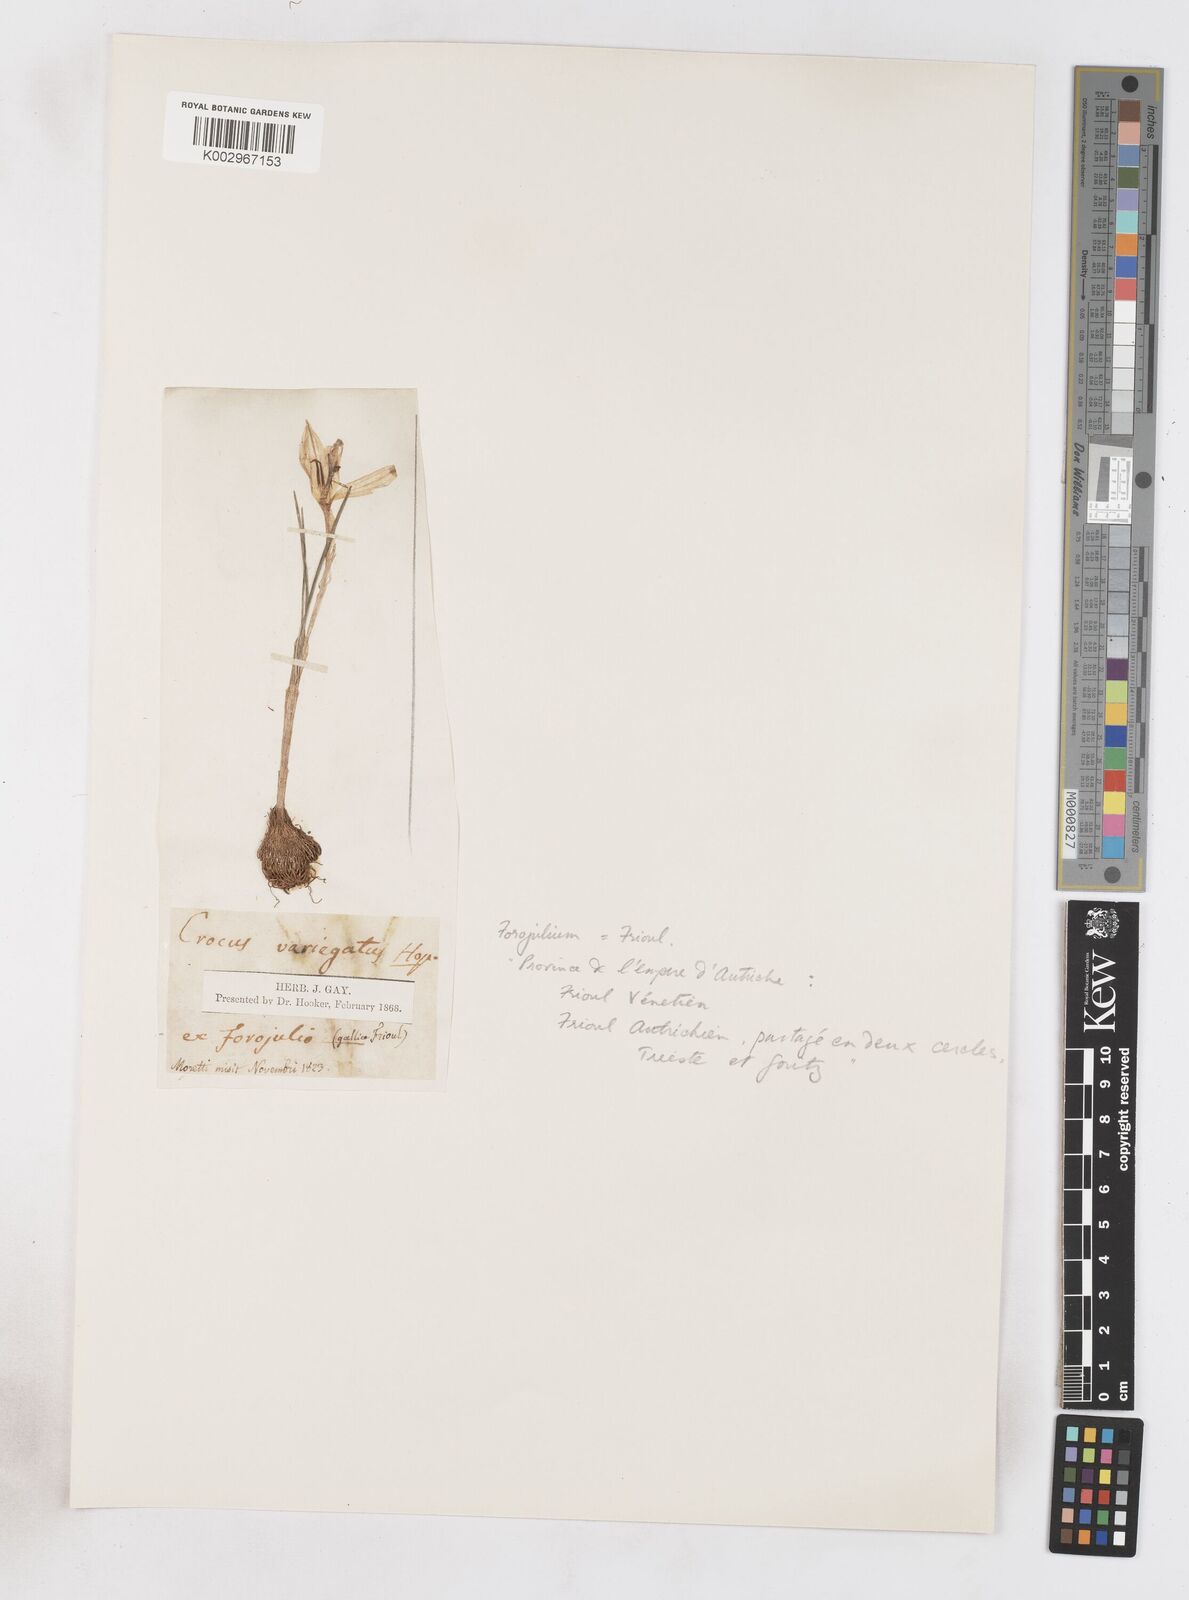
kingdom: Plantae
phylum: Tracheophyta
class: Liliopsida
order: Asparagales
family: Iridaceae
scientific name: Iridaceae
